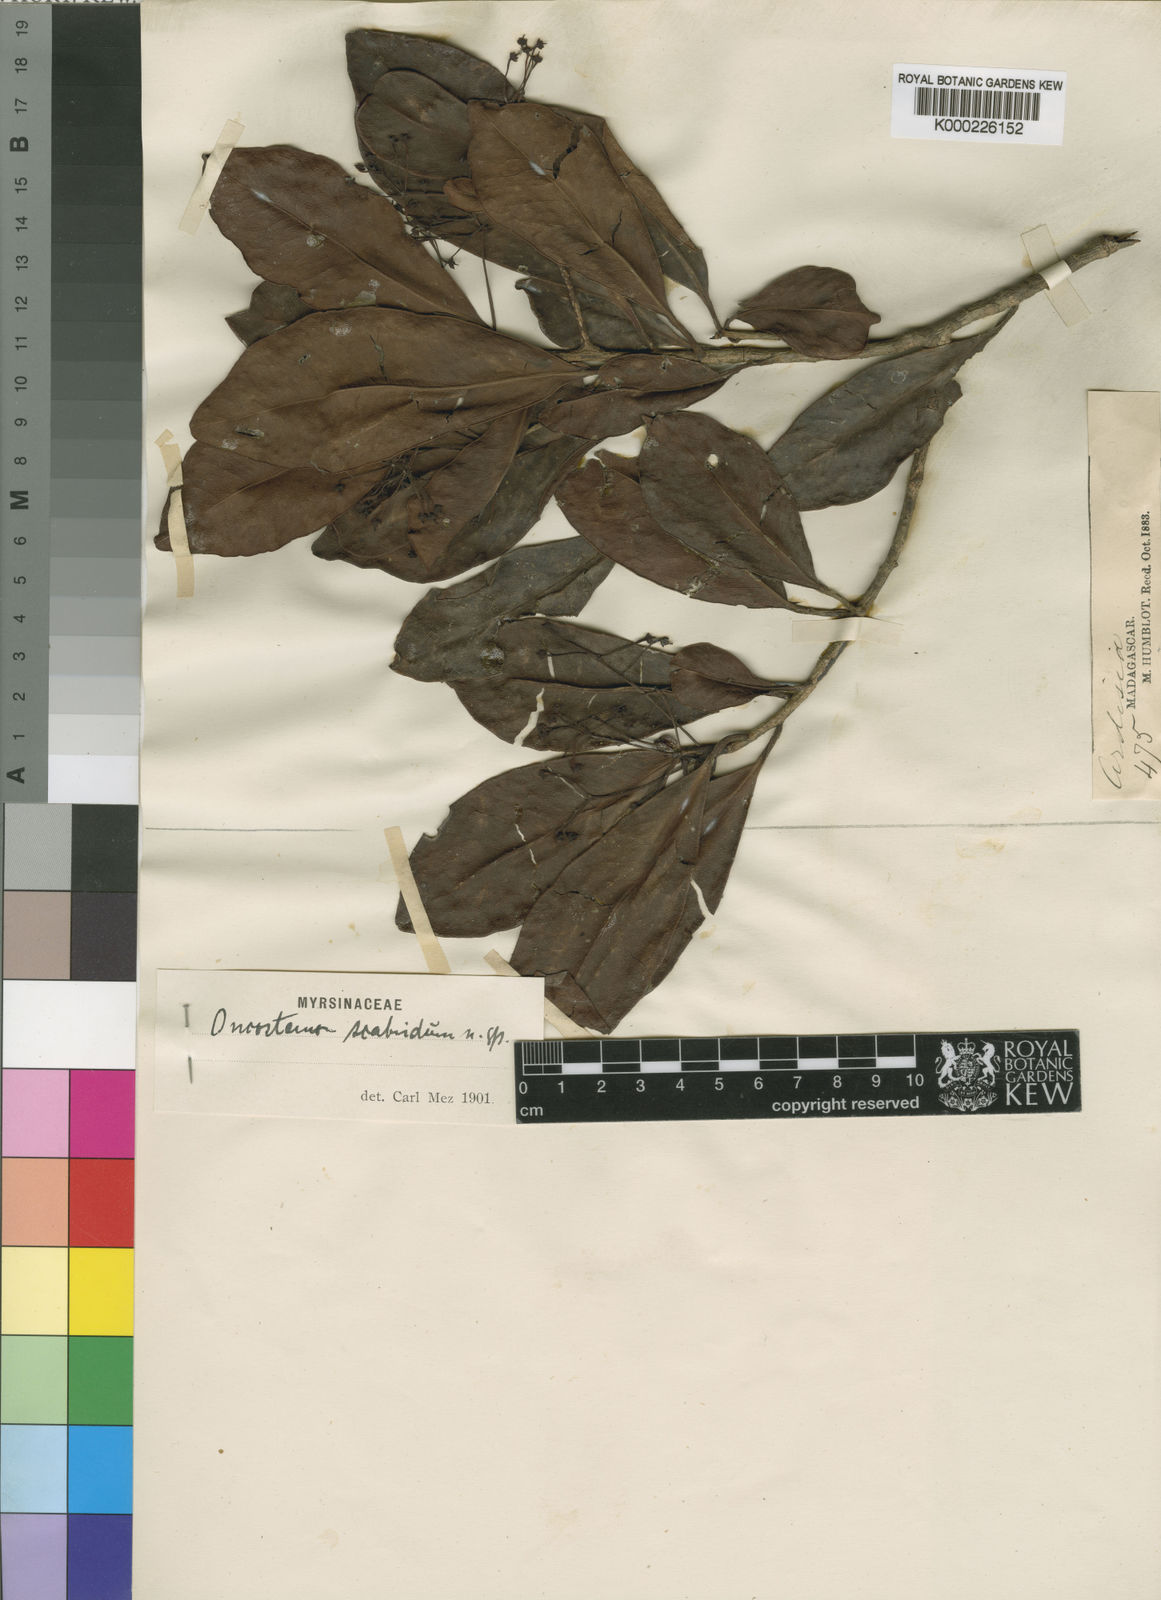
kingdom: Plantae
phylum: Tracheophyta
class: Magnoliopsida
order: Ericales
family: Primulaceae
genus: Oncostemum
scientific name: Oncostemum scabridum
